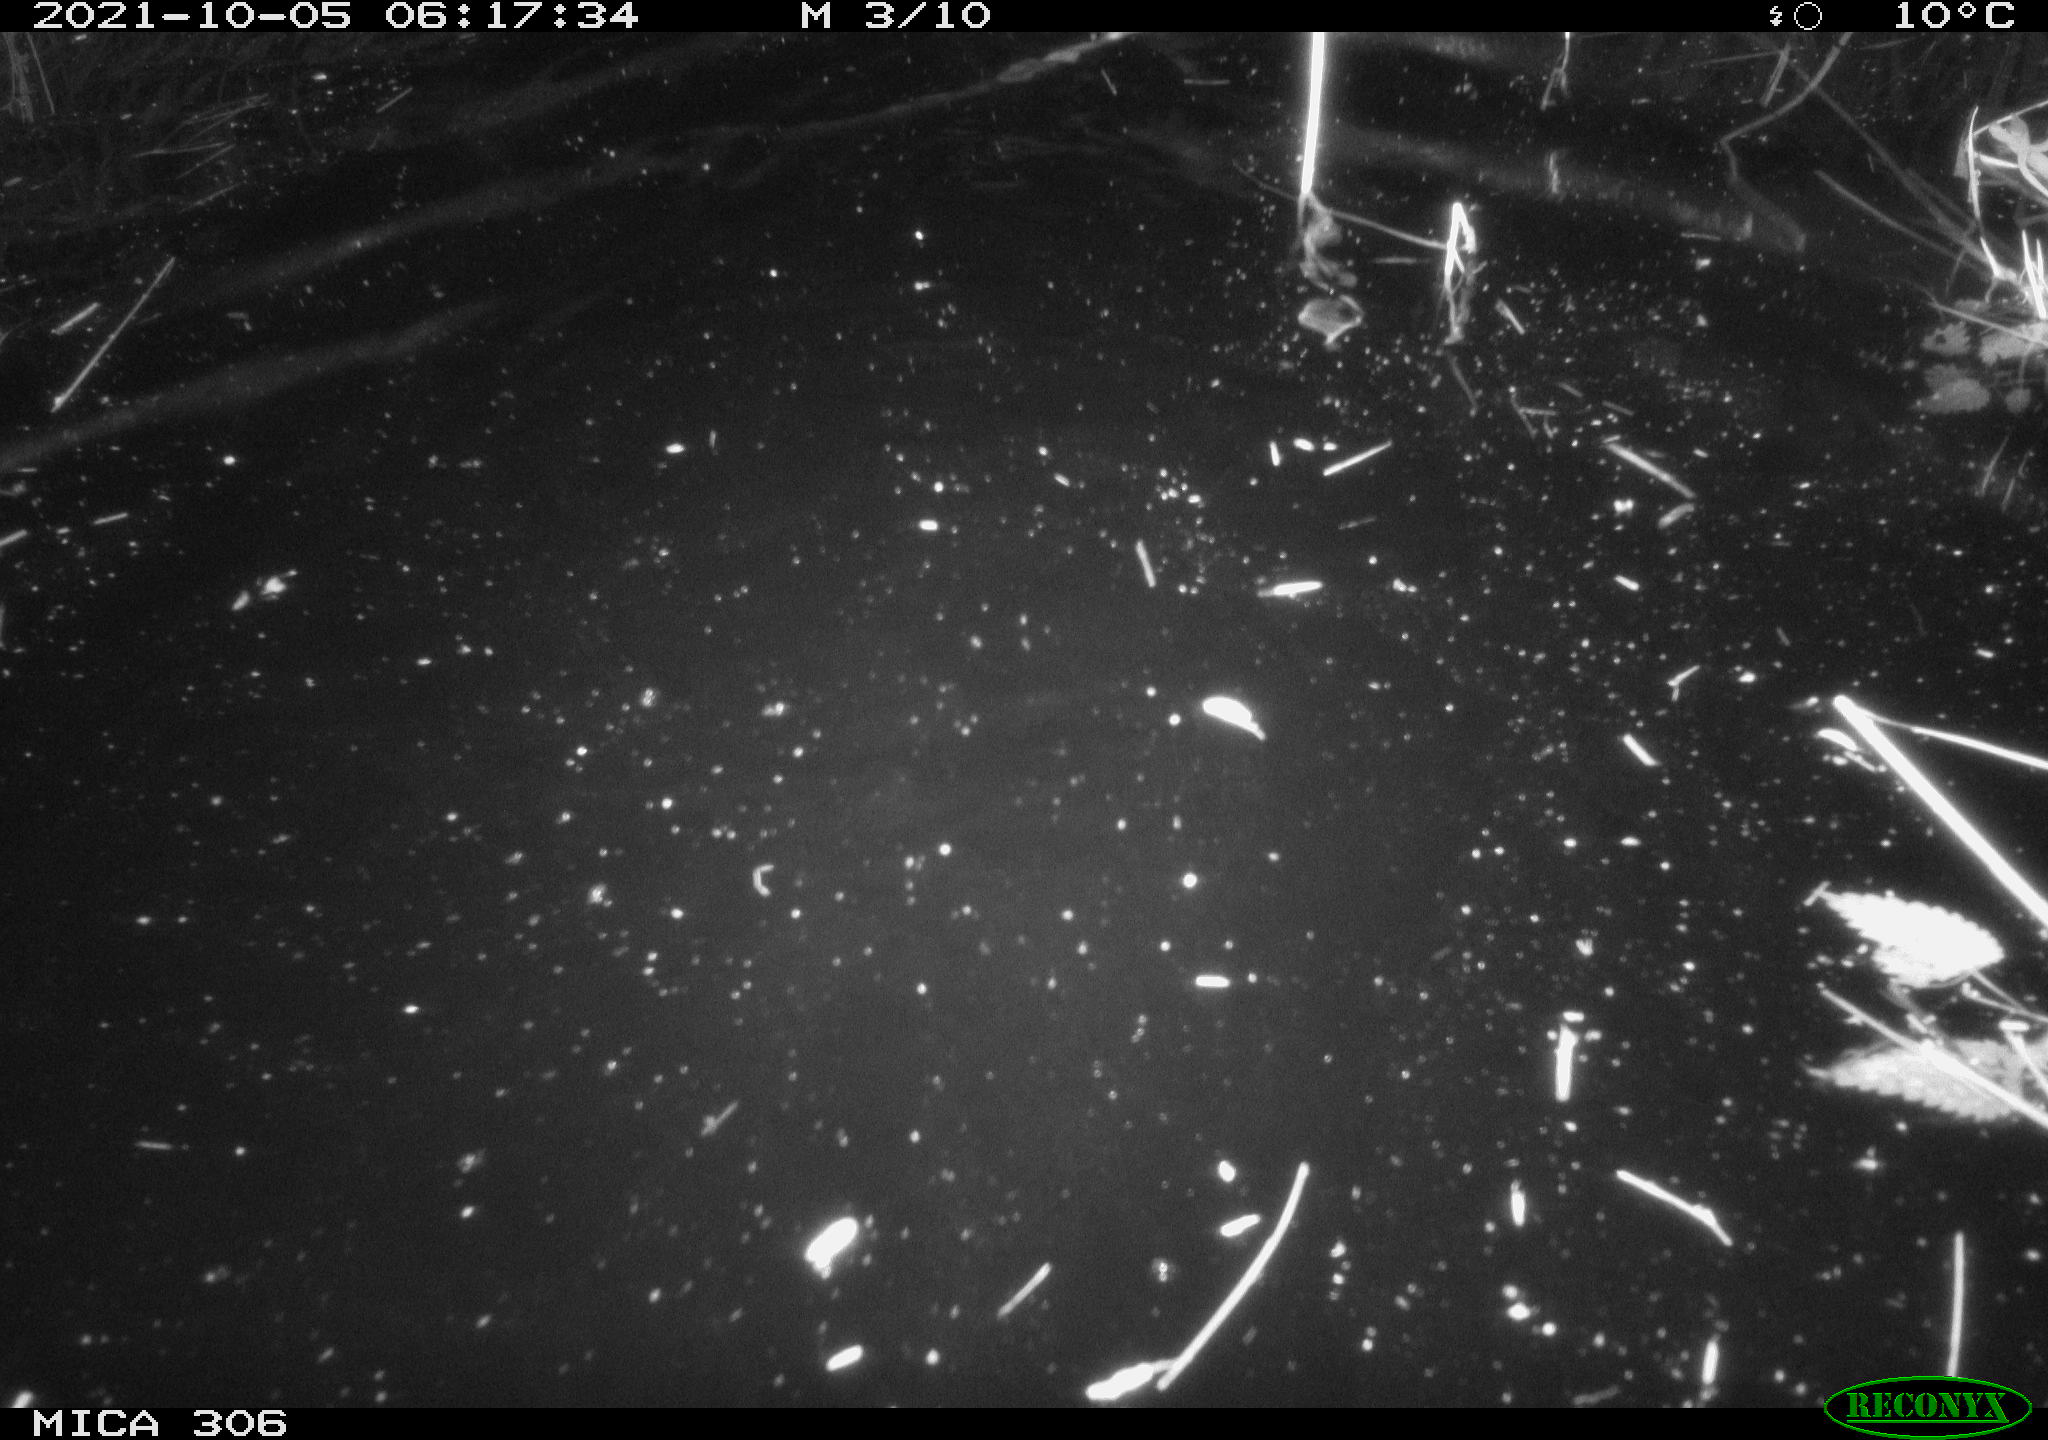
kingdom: Animalia
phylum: Chordata
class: Mammalia
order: Rodentia
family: Cricetidae
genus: Ondatra
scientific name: Ondatra zibethicus
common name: Muskrat
